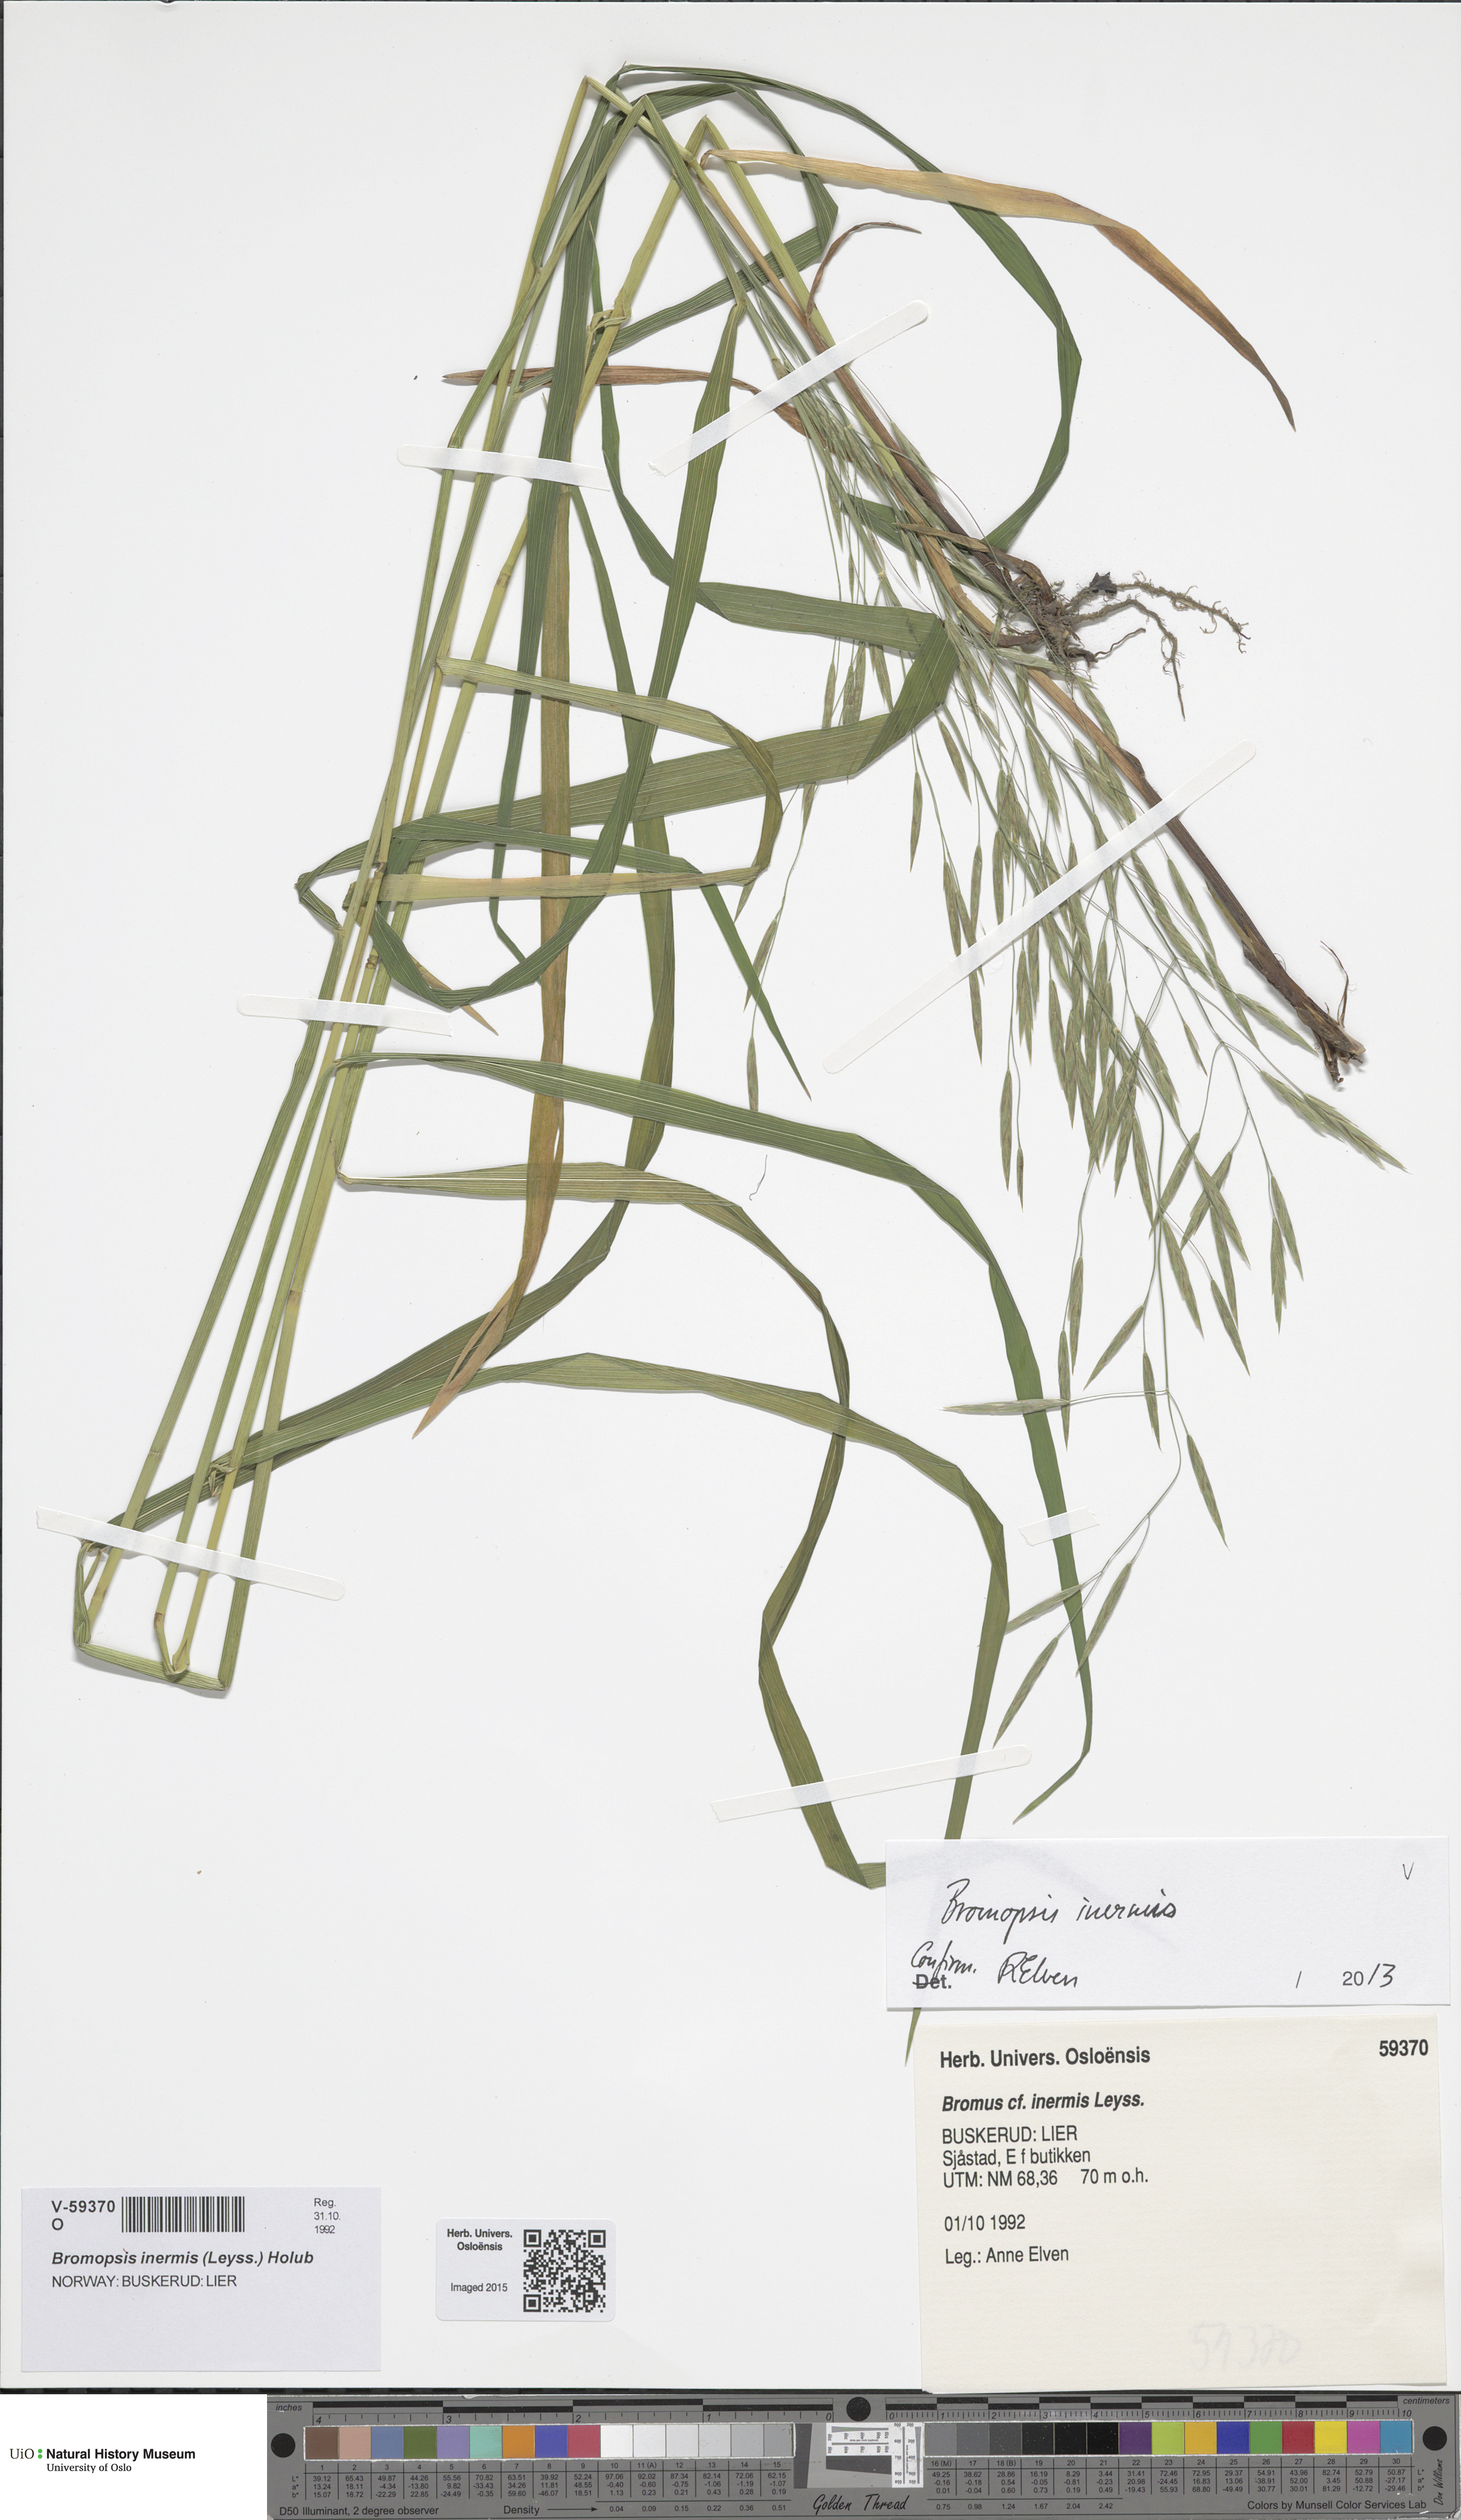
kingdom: Plantae
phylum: Tracheophyta
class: Liliopsida
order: Poales
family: Poaceae
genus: Bromus
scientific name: Bromus inermis
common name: Smooth brome
